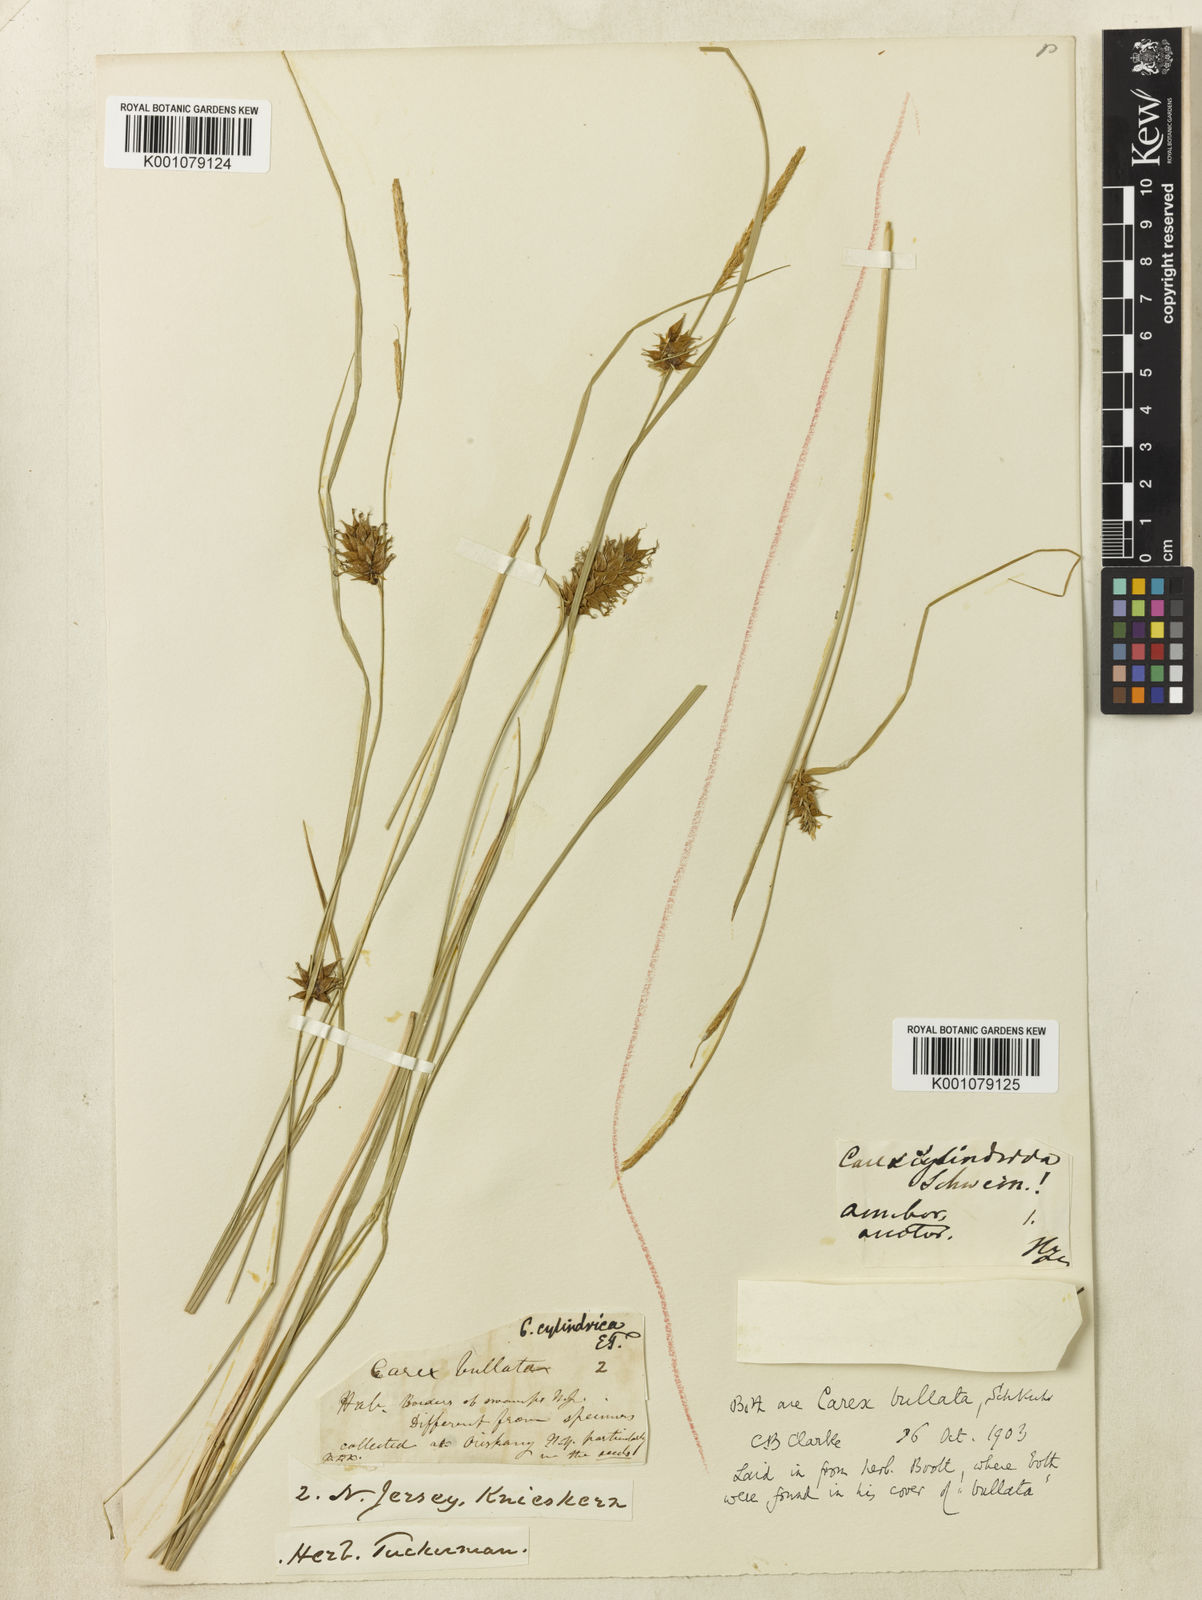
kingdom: Plantae
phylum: Tracheophyta
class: Liliopsida
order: Poales
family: Cyperaceae
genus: Carex
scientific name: Carex
